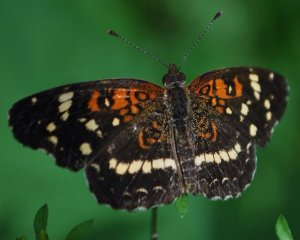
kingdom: Animalia
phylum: Arthropoda
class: Insecta
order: Lepidoptera
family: Nymphalidae
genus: Anthanassa
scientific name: Anthanassa texana
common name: Texan Crescent
